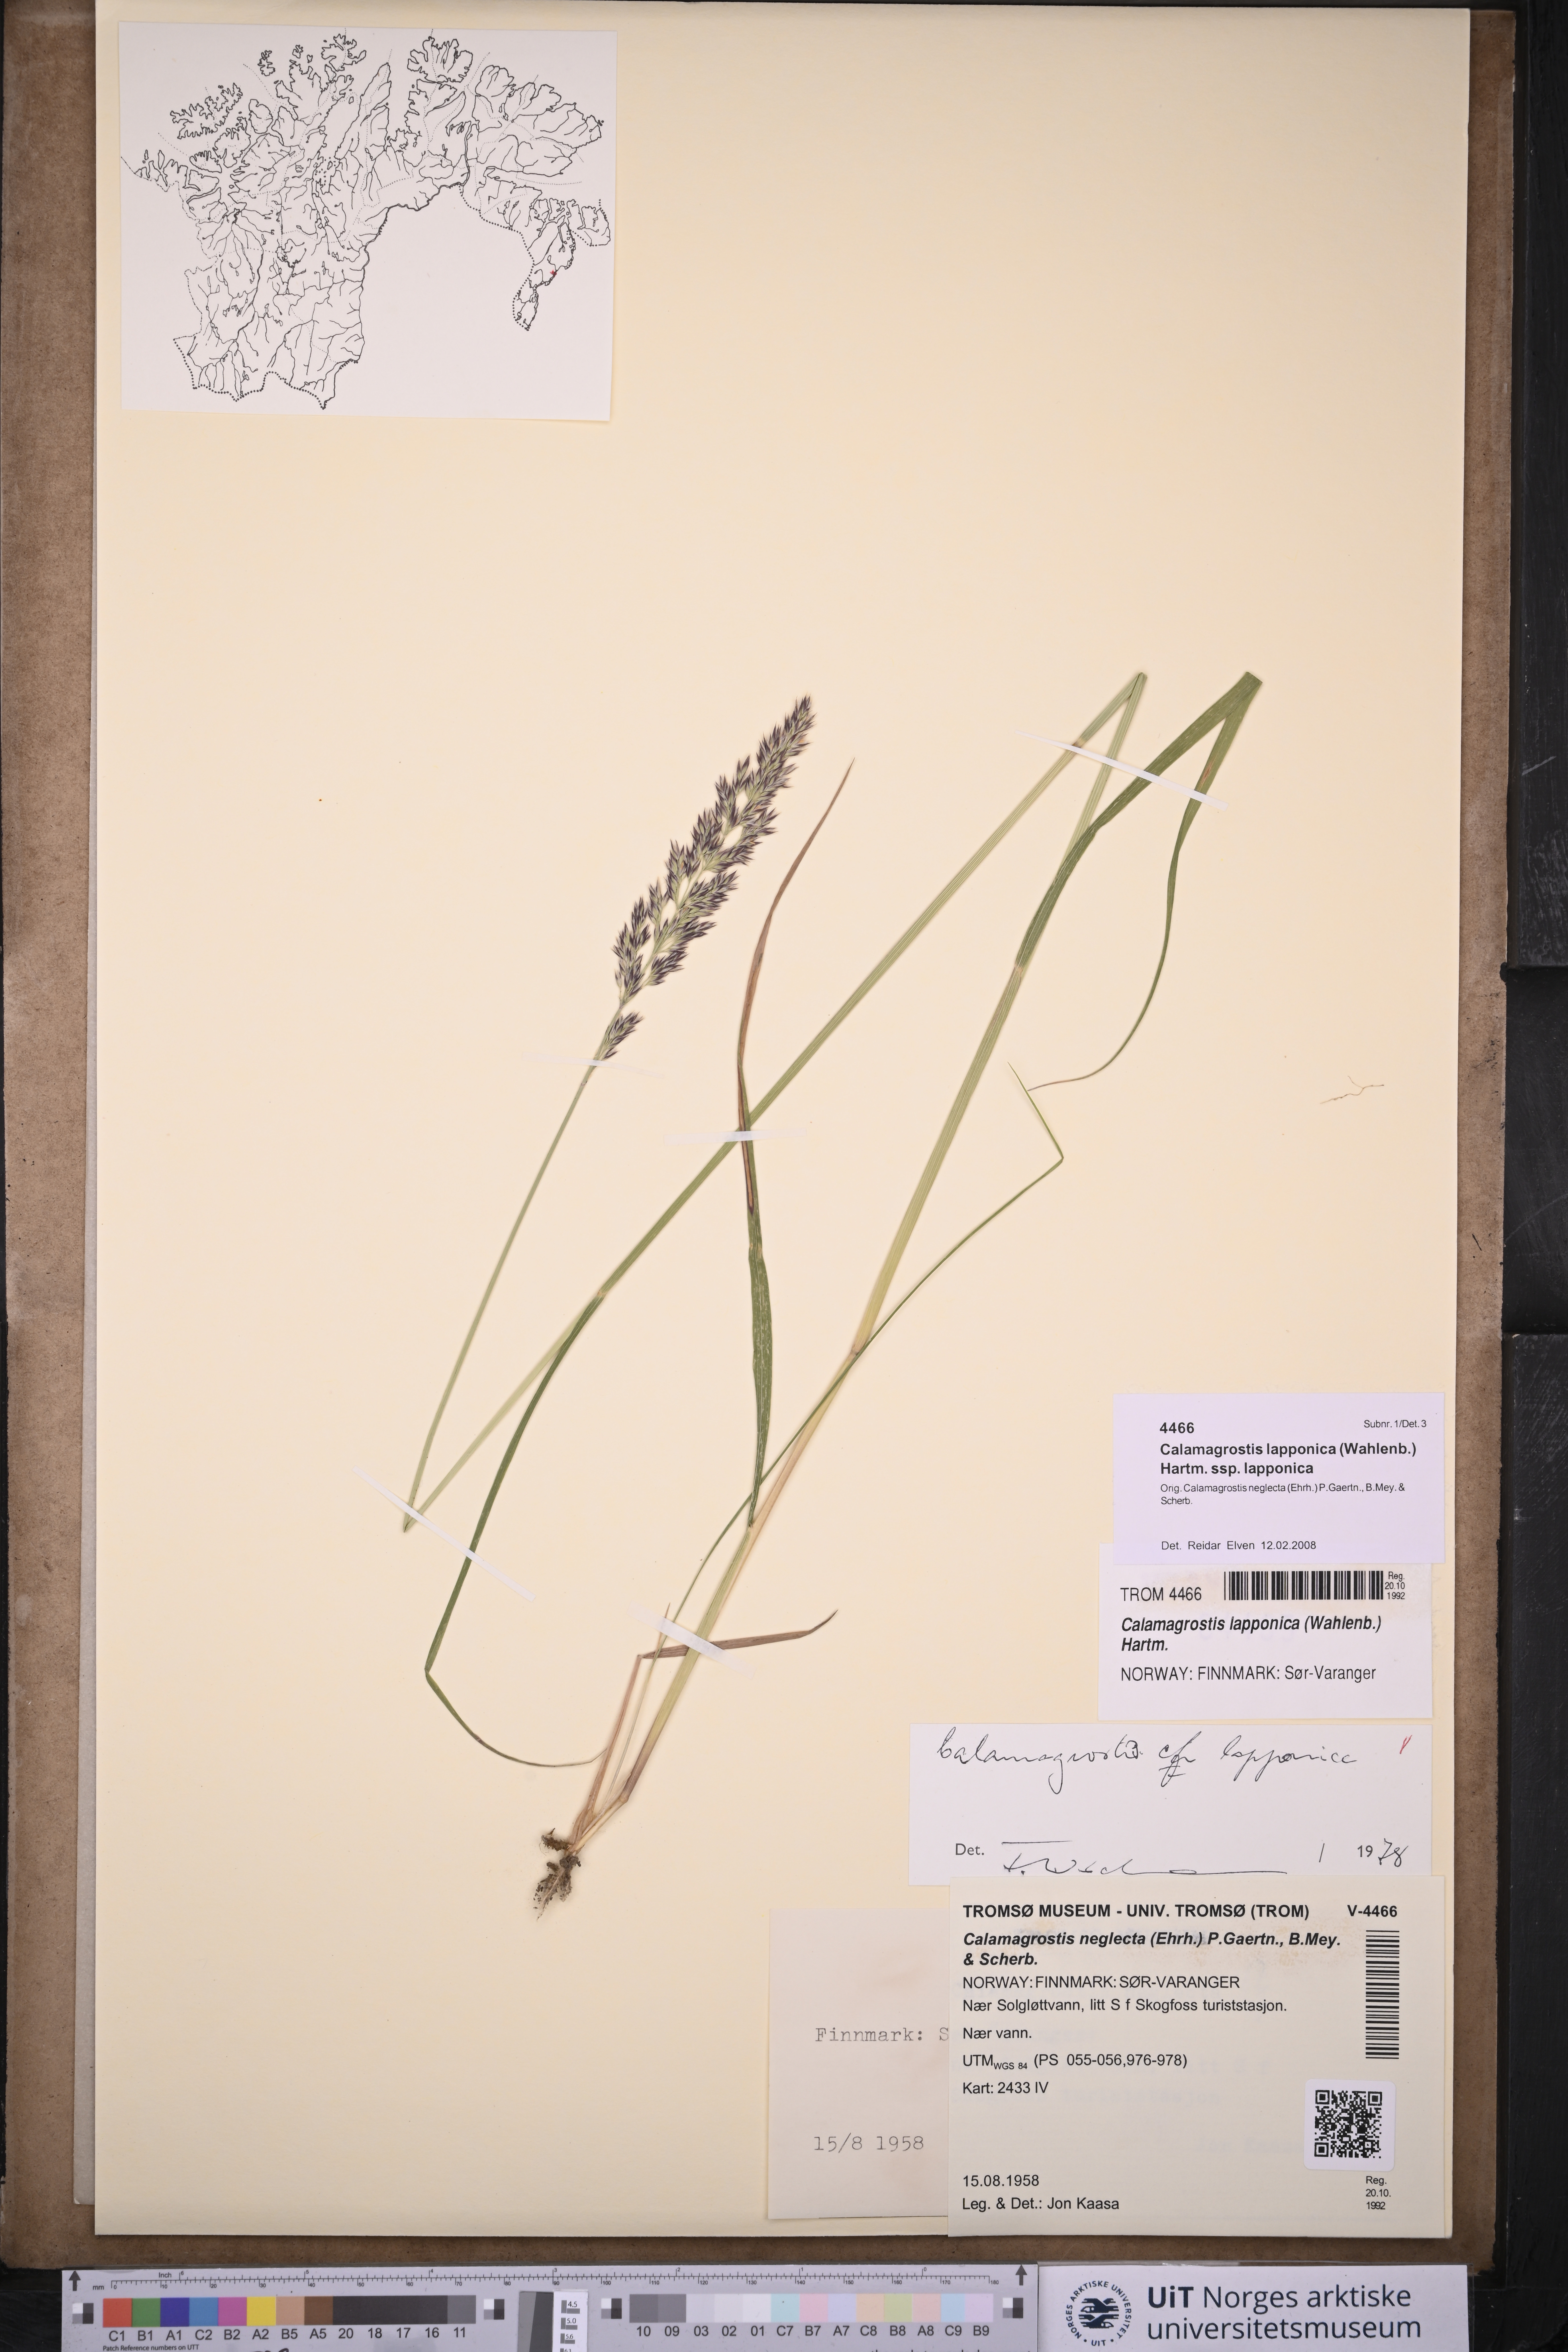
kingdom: Plantae
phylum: Tracheophyta
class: Liliopsida
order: Poales
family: Poaceae
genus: Calamagrostis
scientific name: Calamagrostis lapponica
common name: Lapland reedgrass
